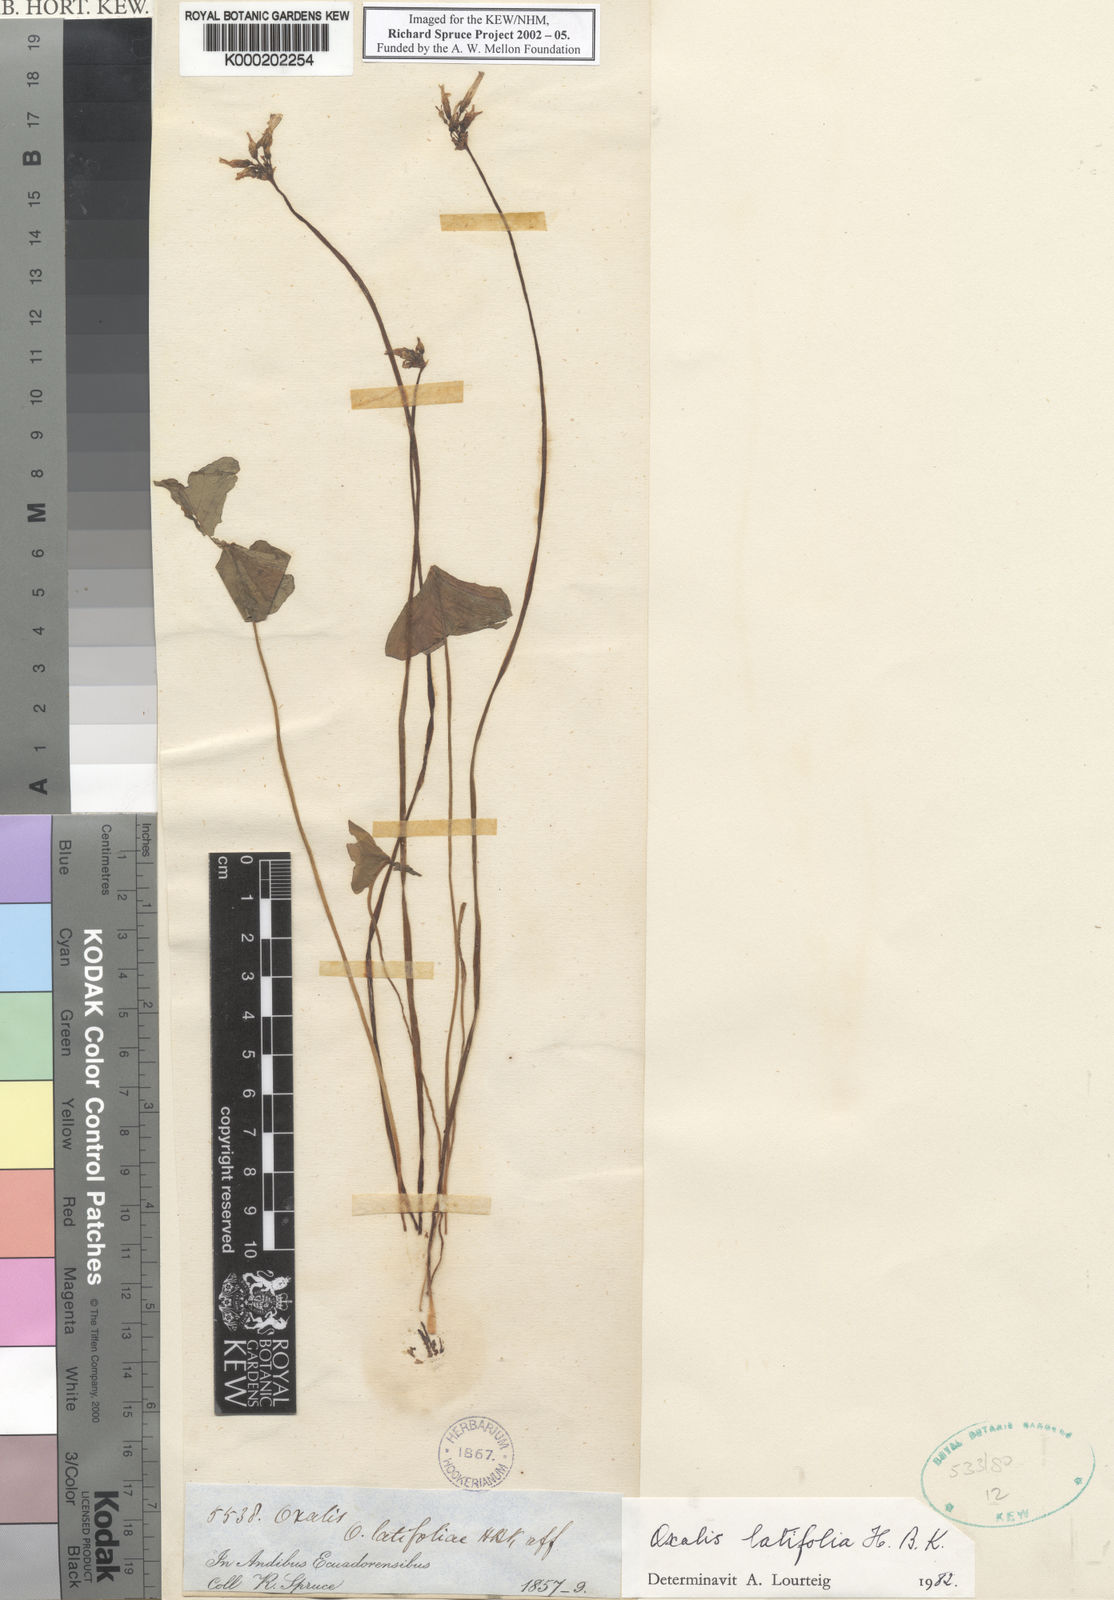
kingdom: Plantae
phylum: Tracheophyta
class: Magnoliopsida
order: Oxalidales
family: Oxalidaceae
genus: Oxalis
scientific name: Oxalis latifolia
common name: Garden pink-sorrel
